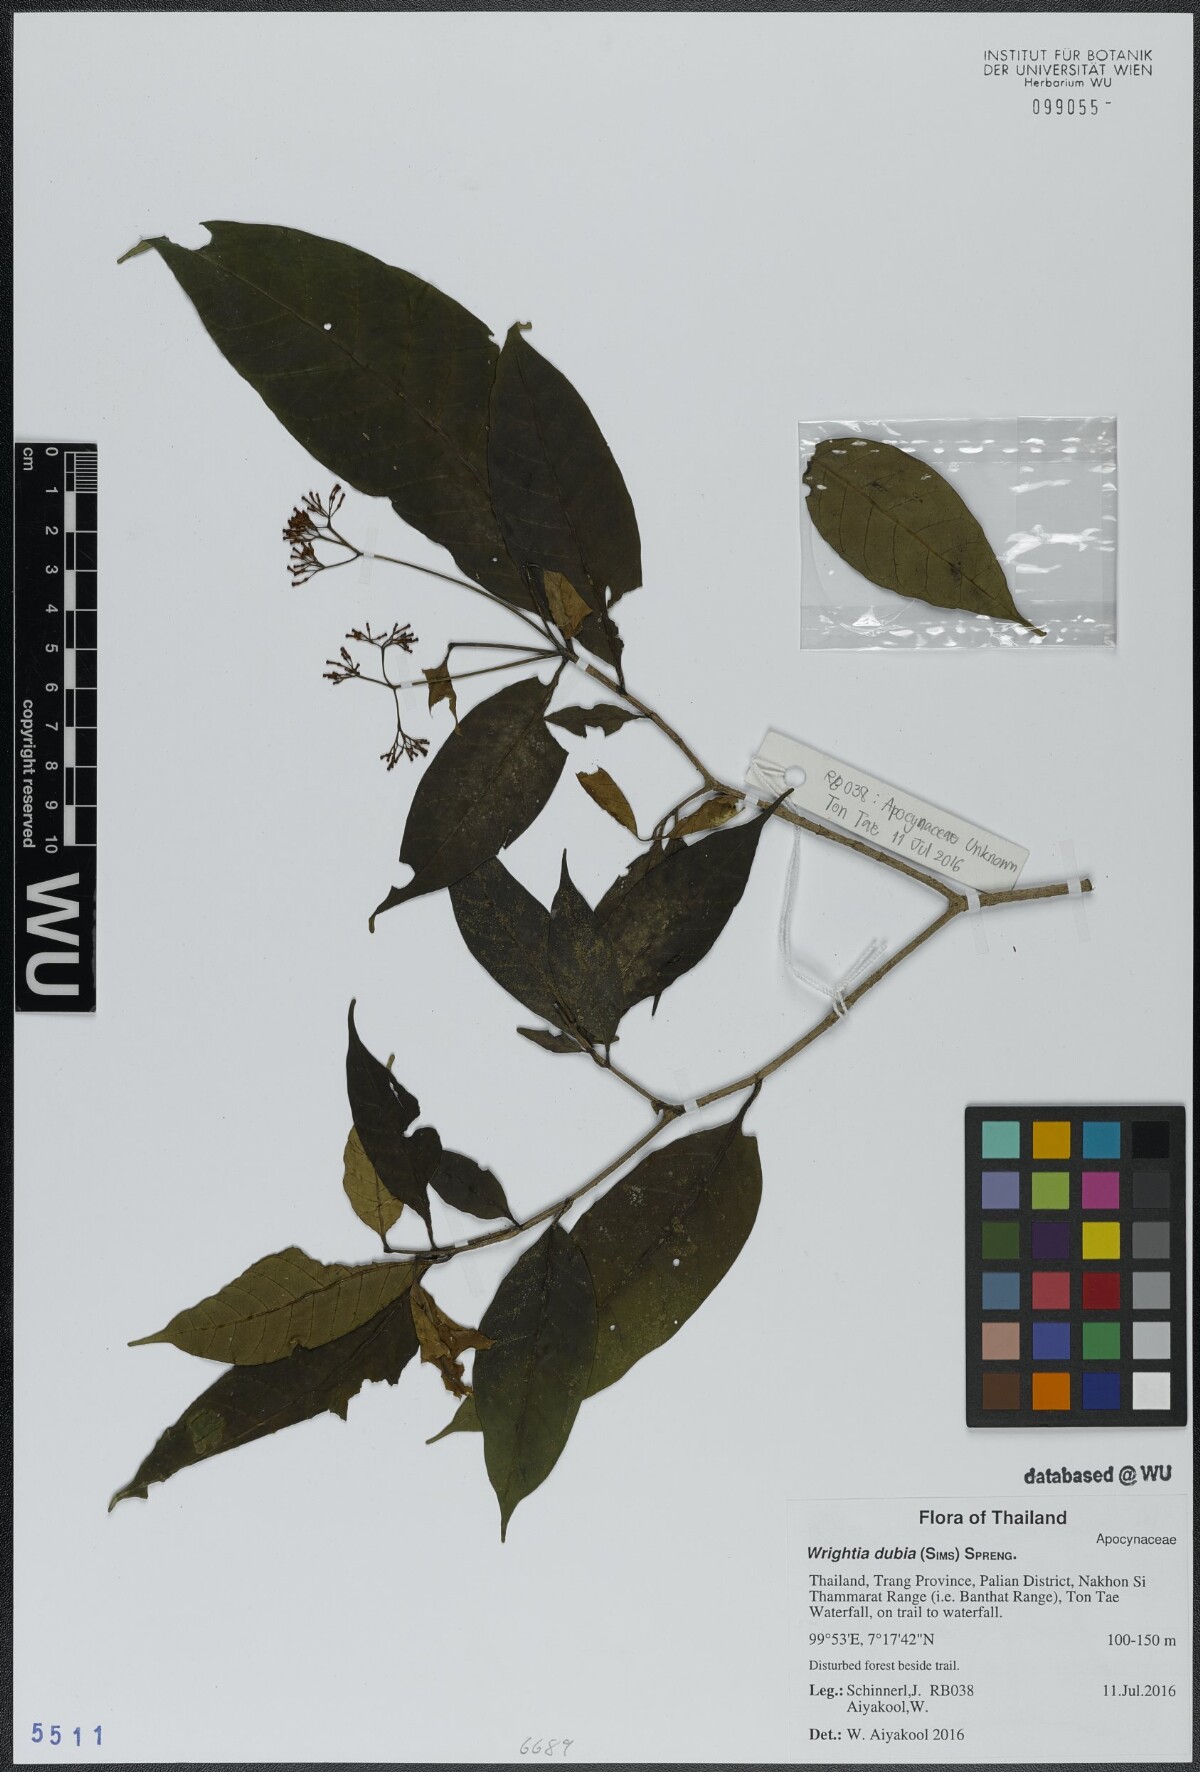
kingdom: Plantae
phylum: Tracheophyta
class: Magnoliopsida
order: Gentianales
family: Apocynaceae
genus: Tabernaemontana
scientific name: Tabernaemontana peduncularis
